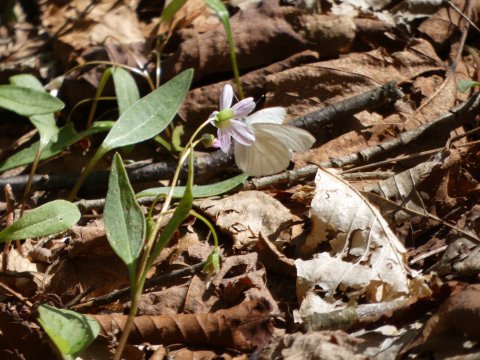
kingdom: Animalia
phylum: Arthropoda
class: Insecta
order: Lepidoptera
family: Pieridae
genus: Pieris
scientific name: Pieris virginiensis
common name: West Virginia White
